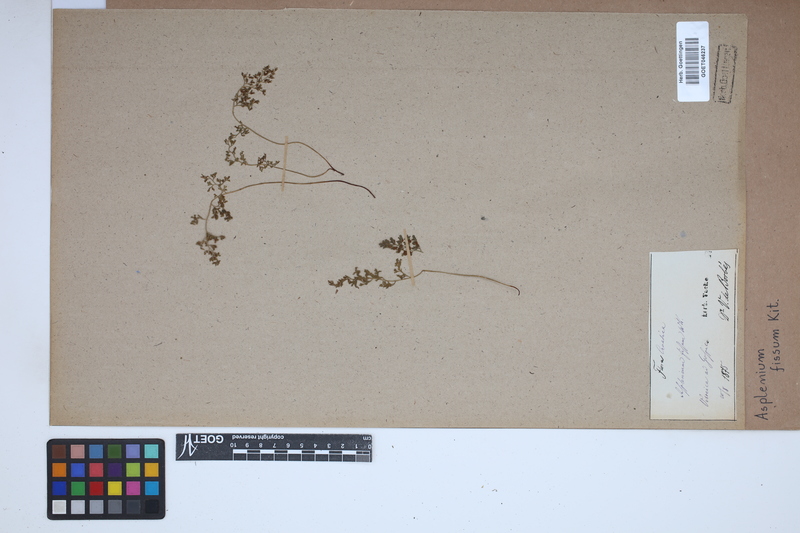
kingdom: Plantae
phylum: Tracheophyta
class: Polypodiopsida
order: Polypodiales
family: Aspleniaceae
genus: Asplenium
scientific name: Asplenium fissum
